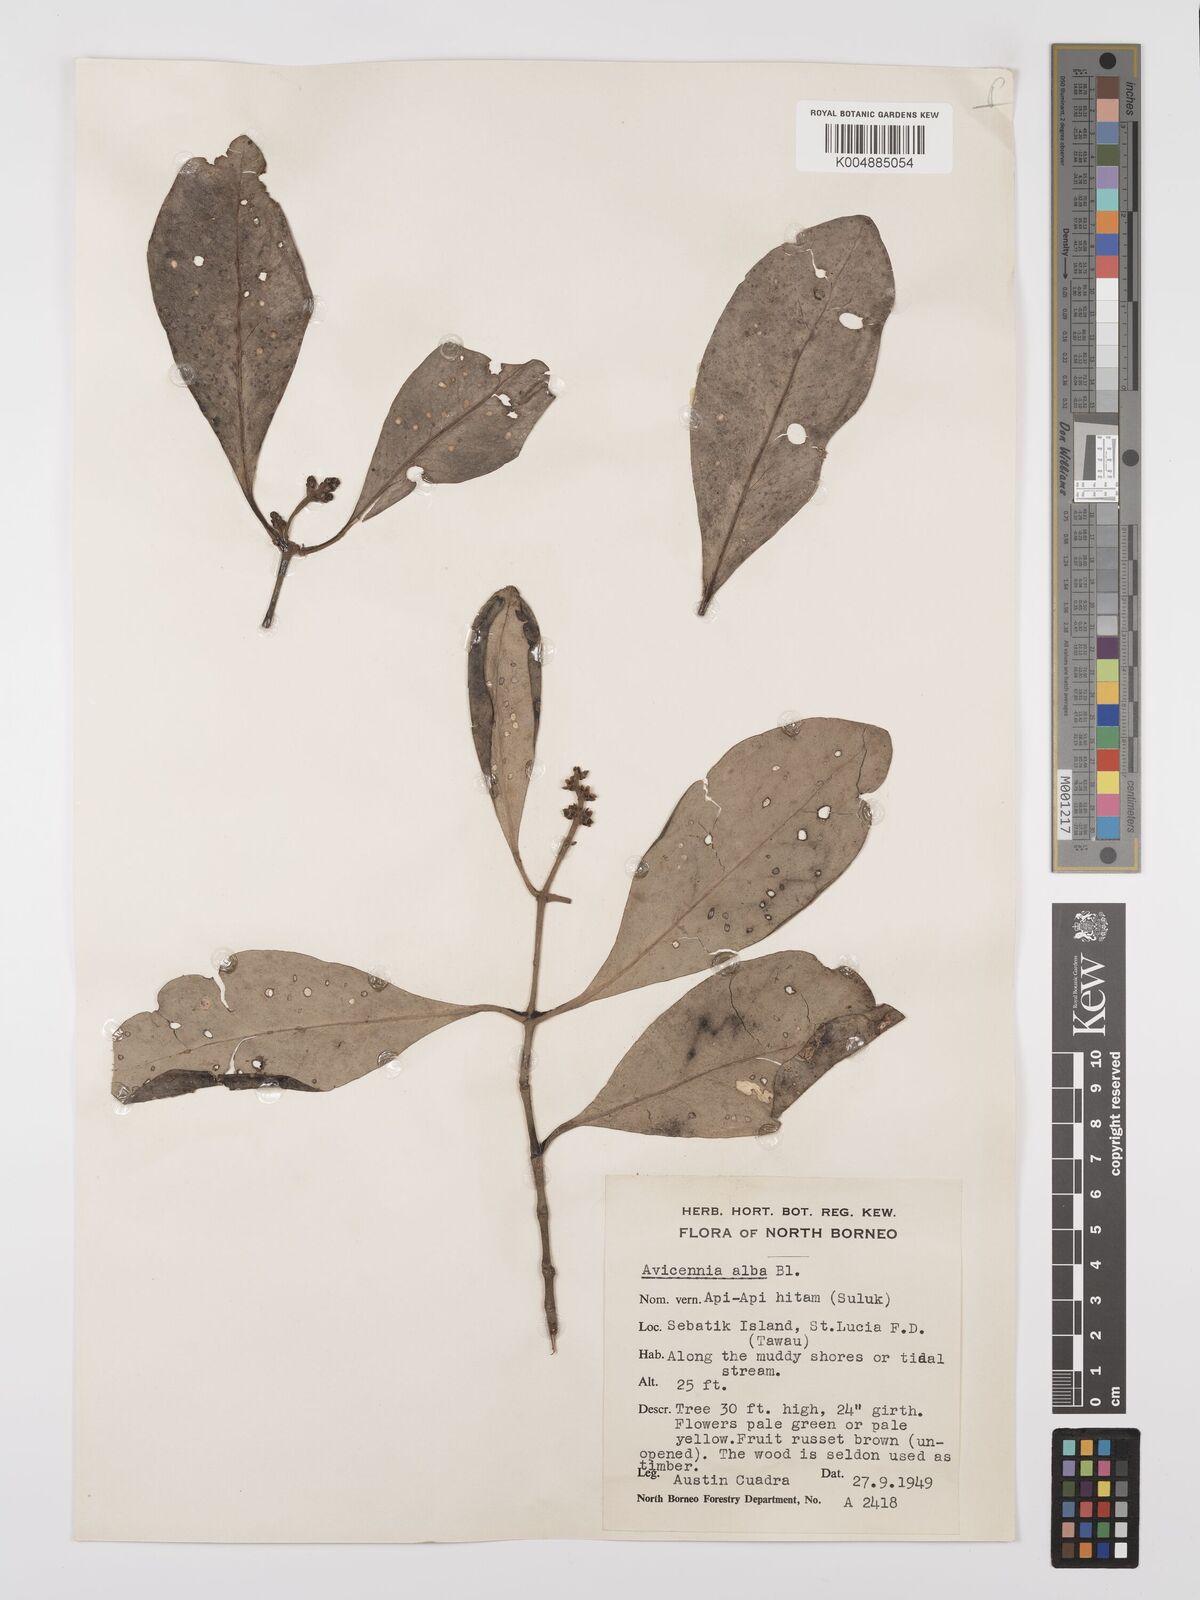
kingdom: Plantae
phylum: Tracheophyta
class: Magnoliopsida
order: Lamiales
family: Acanthaceae
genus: Avicennia
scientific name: Avicennia alba
